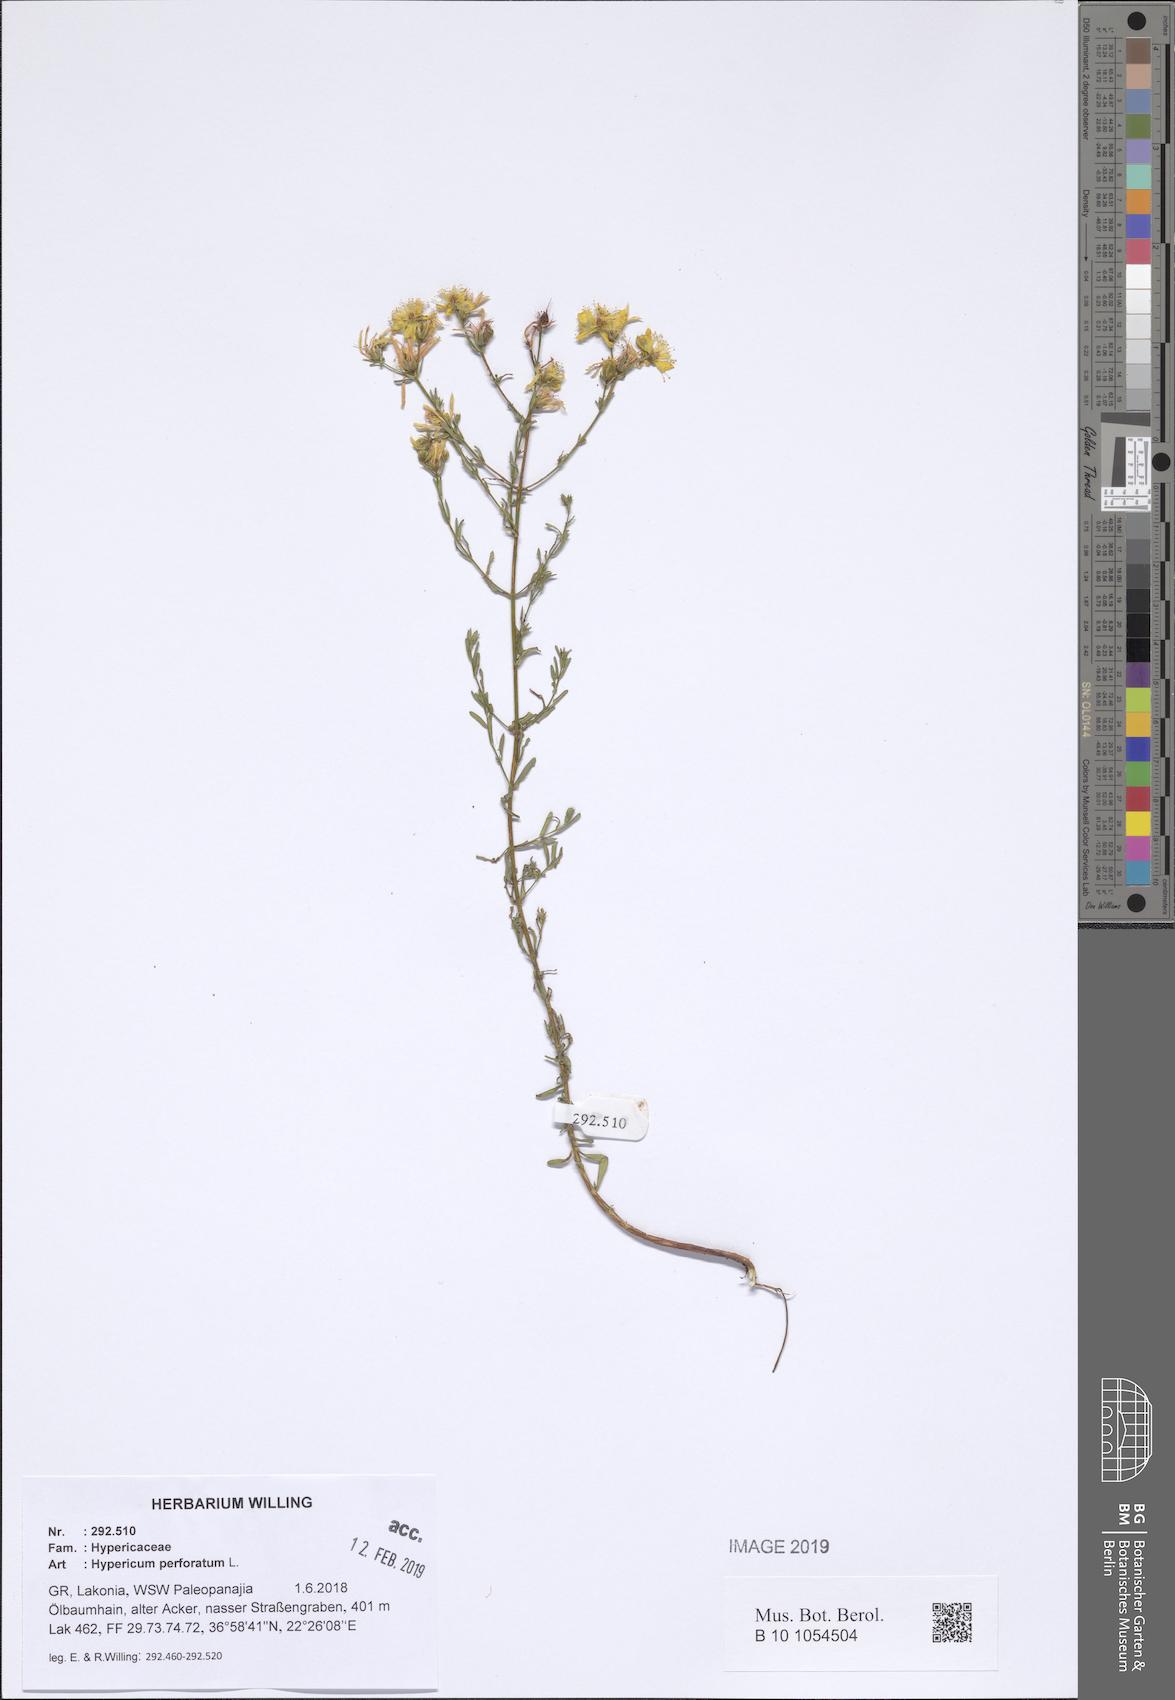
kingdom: Plantae
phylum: Tracheophyta
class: Magnoliopsida
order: Malpighiales
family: Hypericaceae
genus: Hypericum
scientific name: Hypericum perforatum
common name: Common st. johnswort
